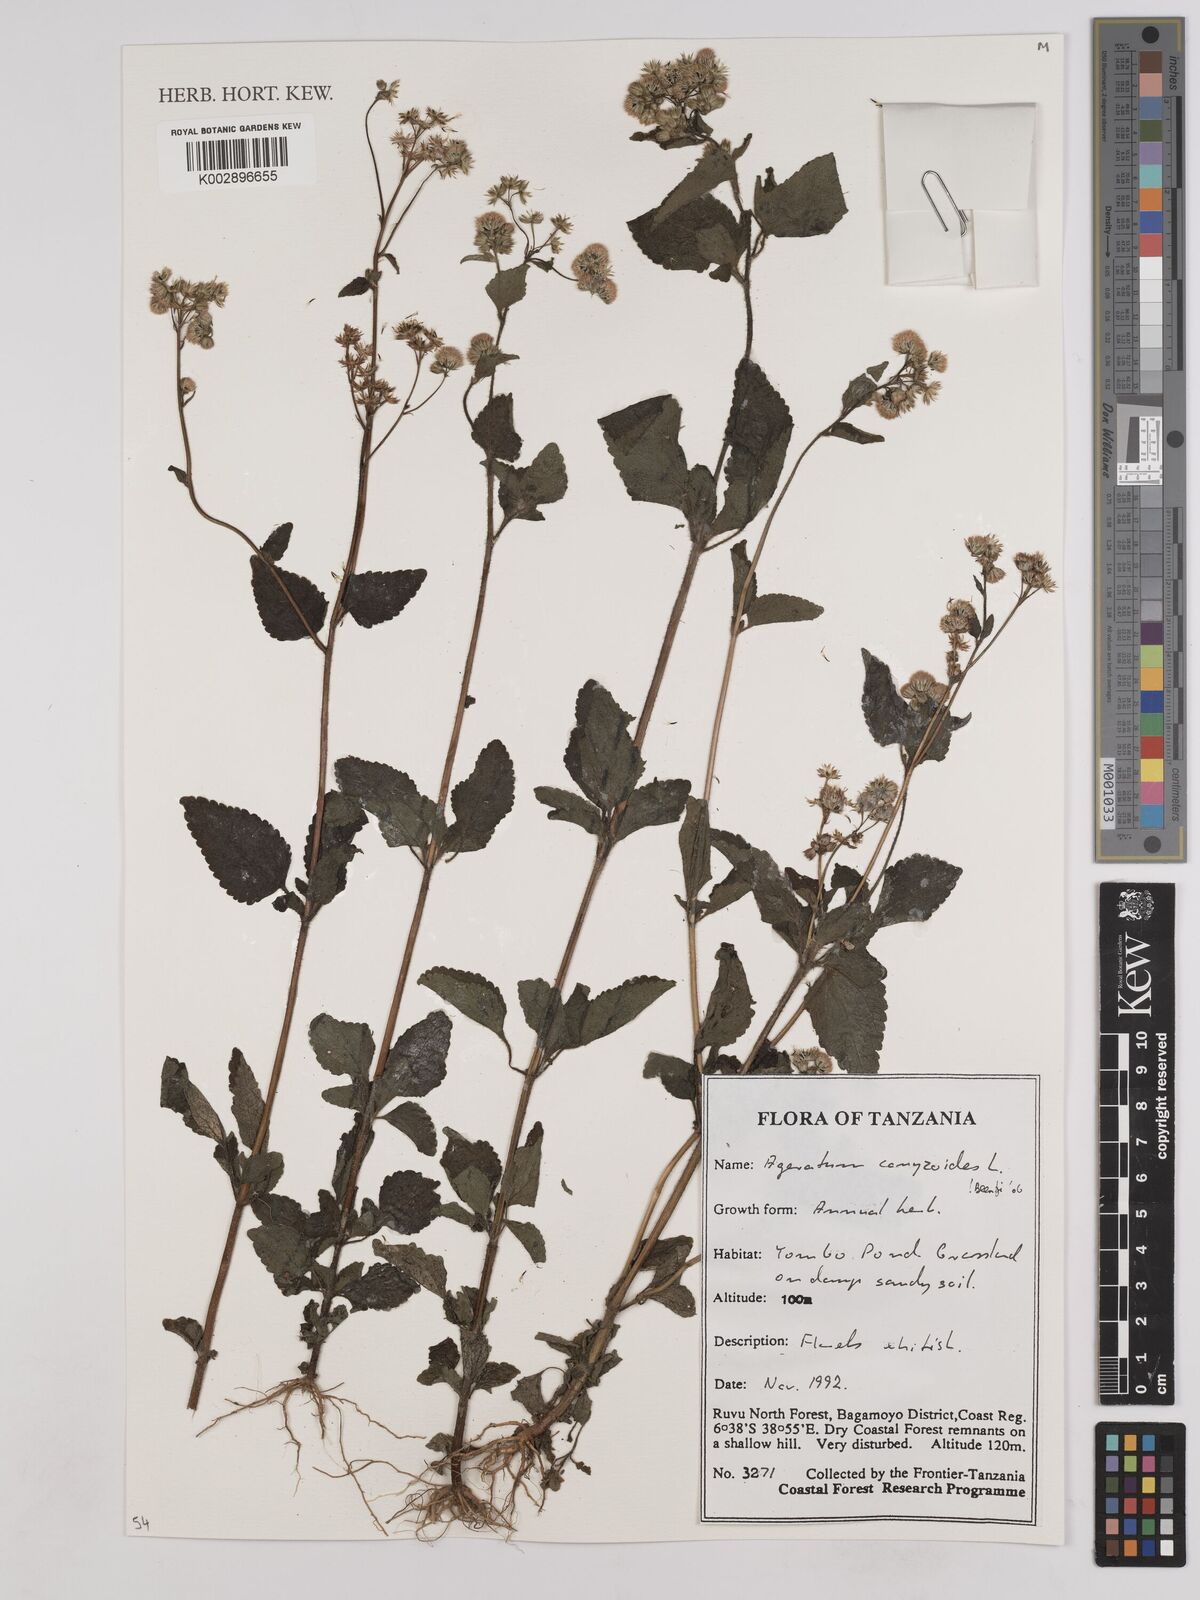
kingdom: Plantae
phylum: Tracheophyta
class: Magnoliopsida
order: Asterales
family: Asteraceae
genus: Ageratum
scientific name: Ageratum conyzoides
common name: Tropical whiteweed
